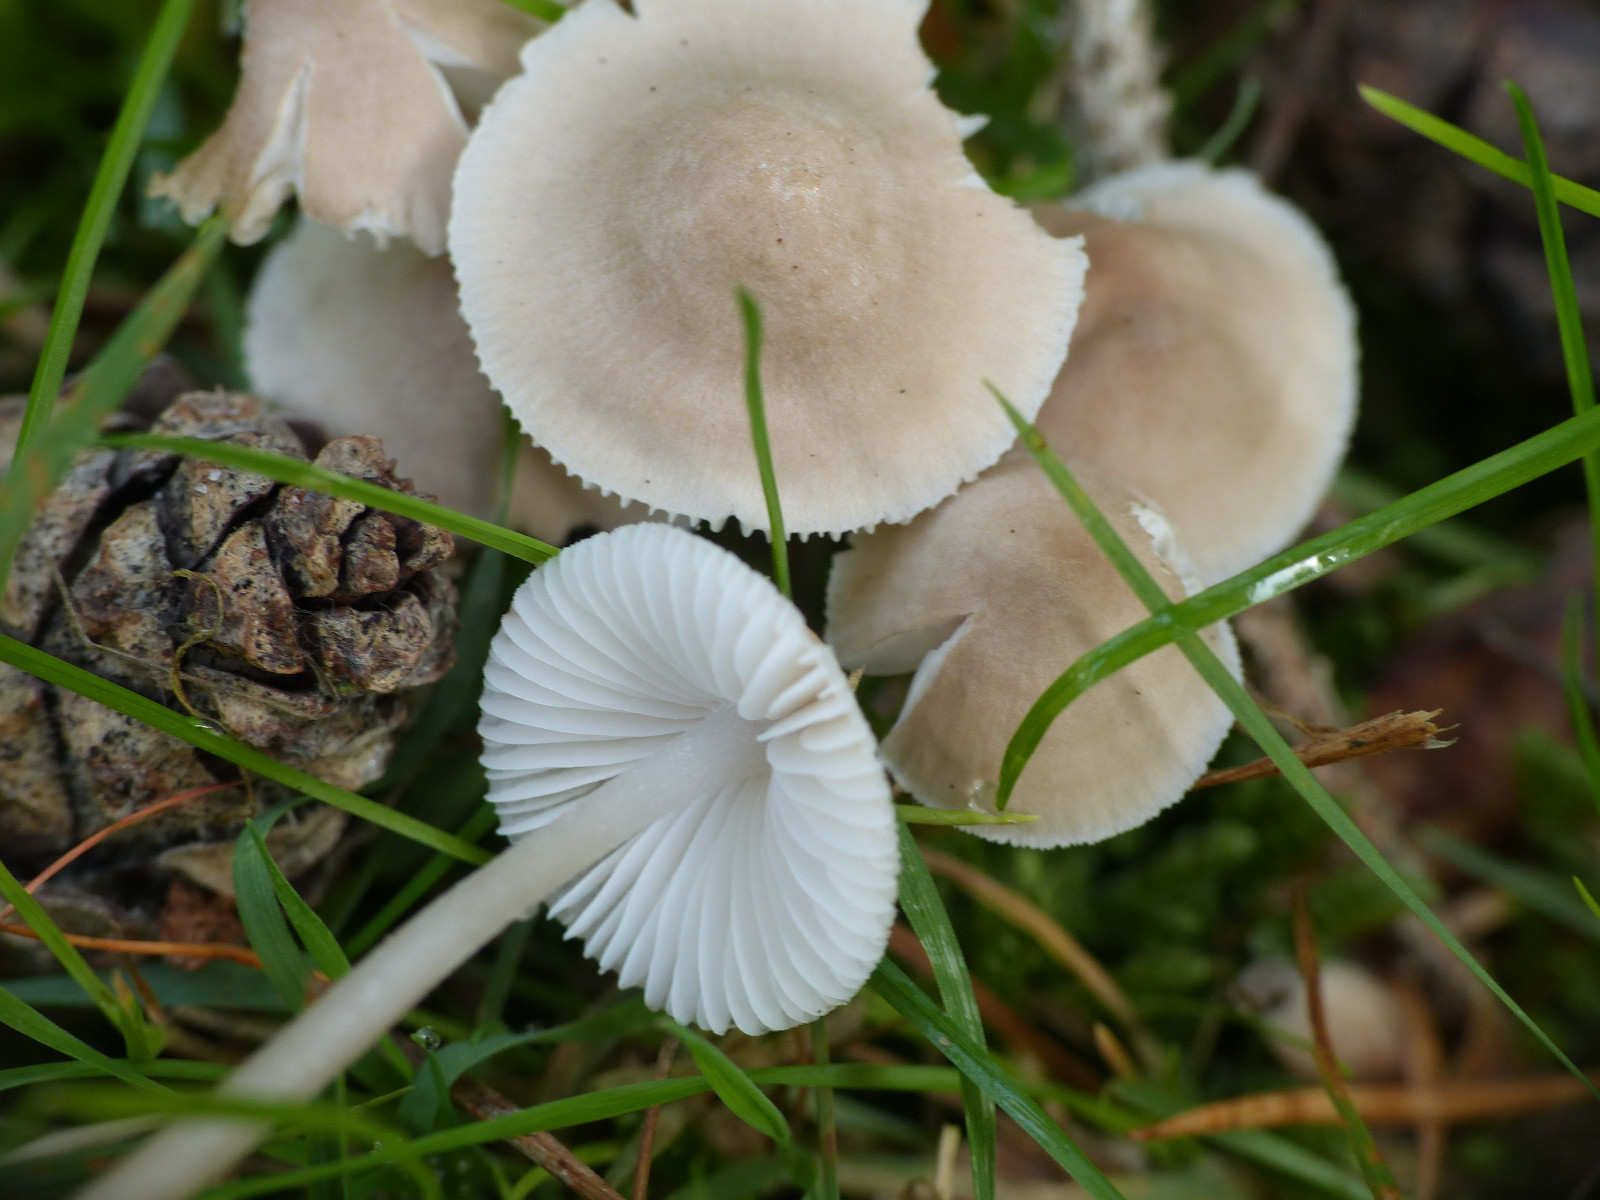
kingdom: Fungi
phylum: Basidiomycota
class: Agaricomycetes
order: Agaricales
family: Mycenaceae
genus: Mycena
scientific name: Mycena zephirus
